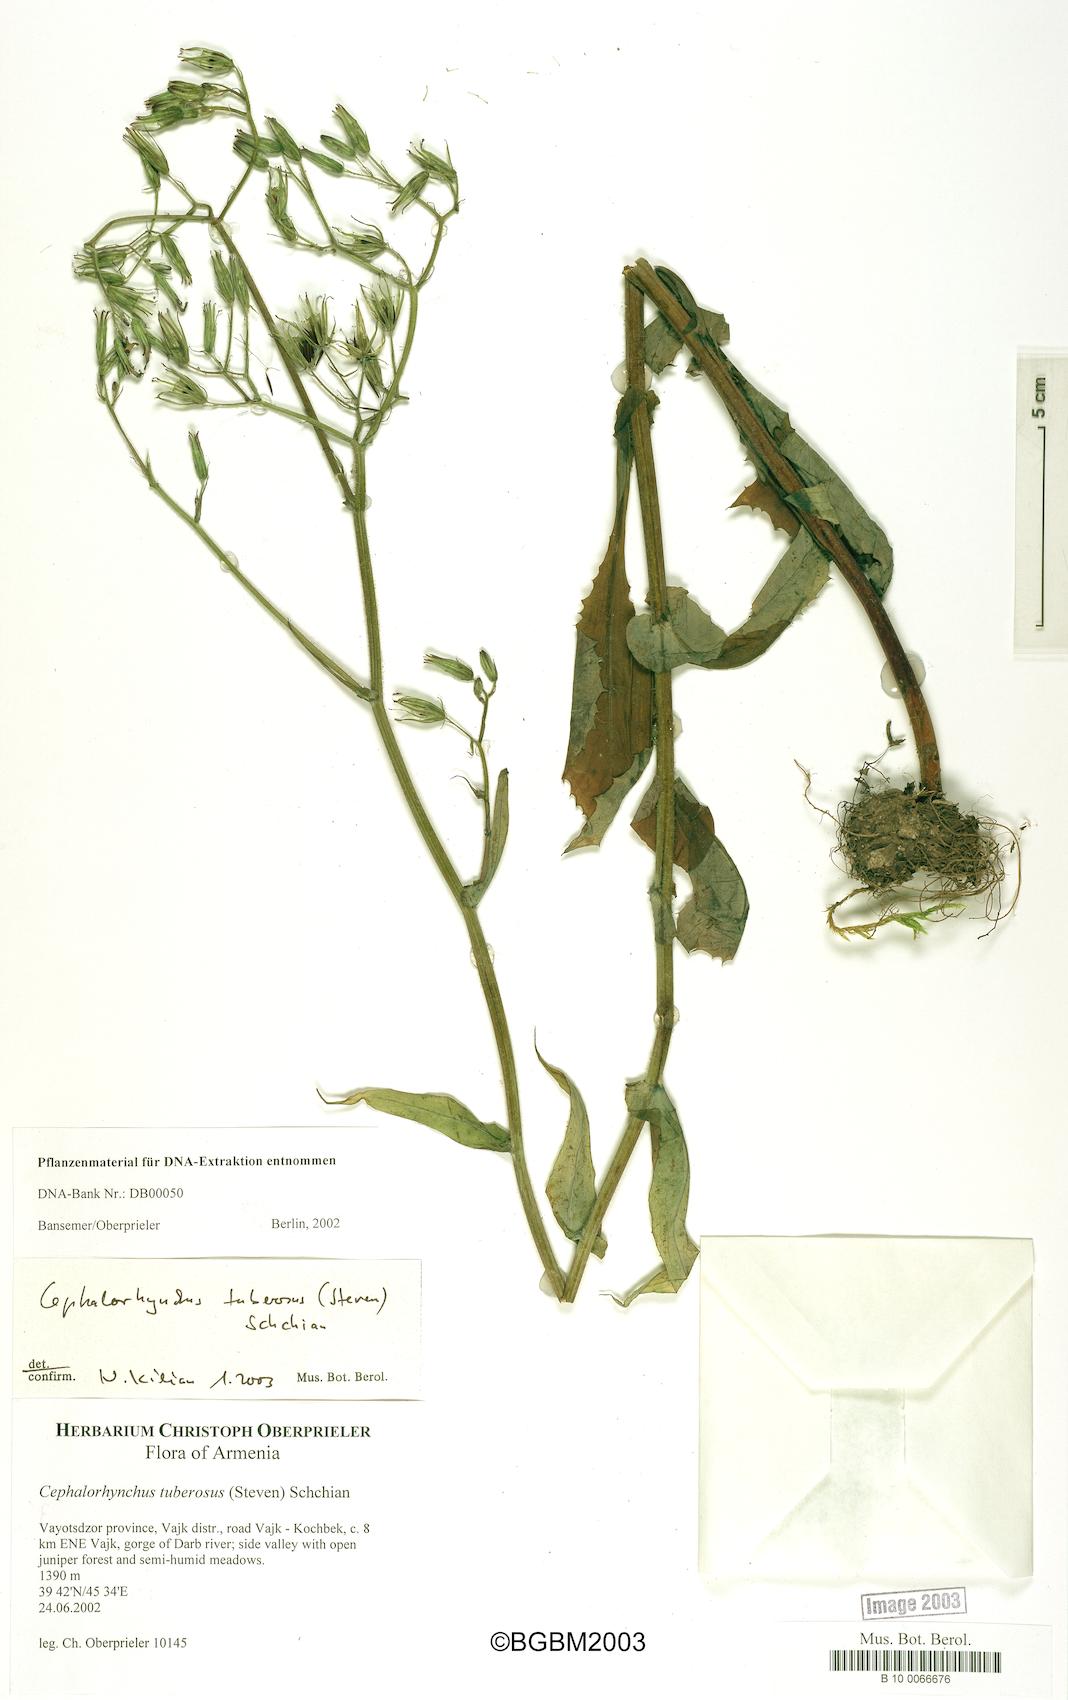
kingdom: Plantae
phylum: Tracheophyta
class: Magnoliopsida
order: Asterales
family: Asteraceae
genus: Lactuca
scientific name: Lactuca hispida
